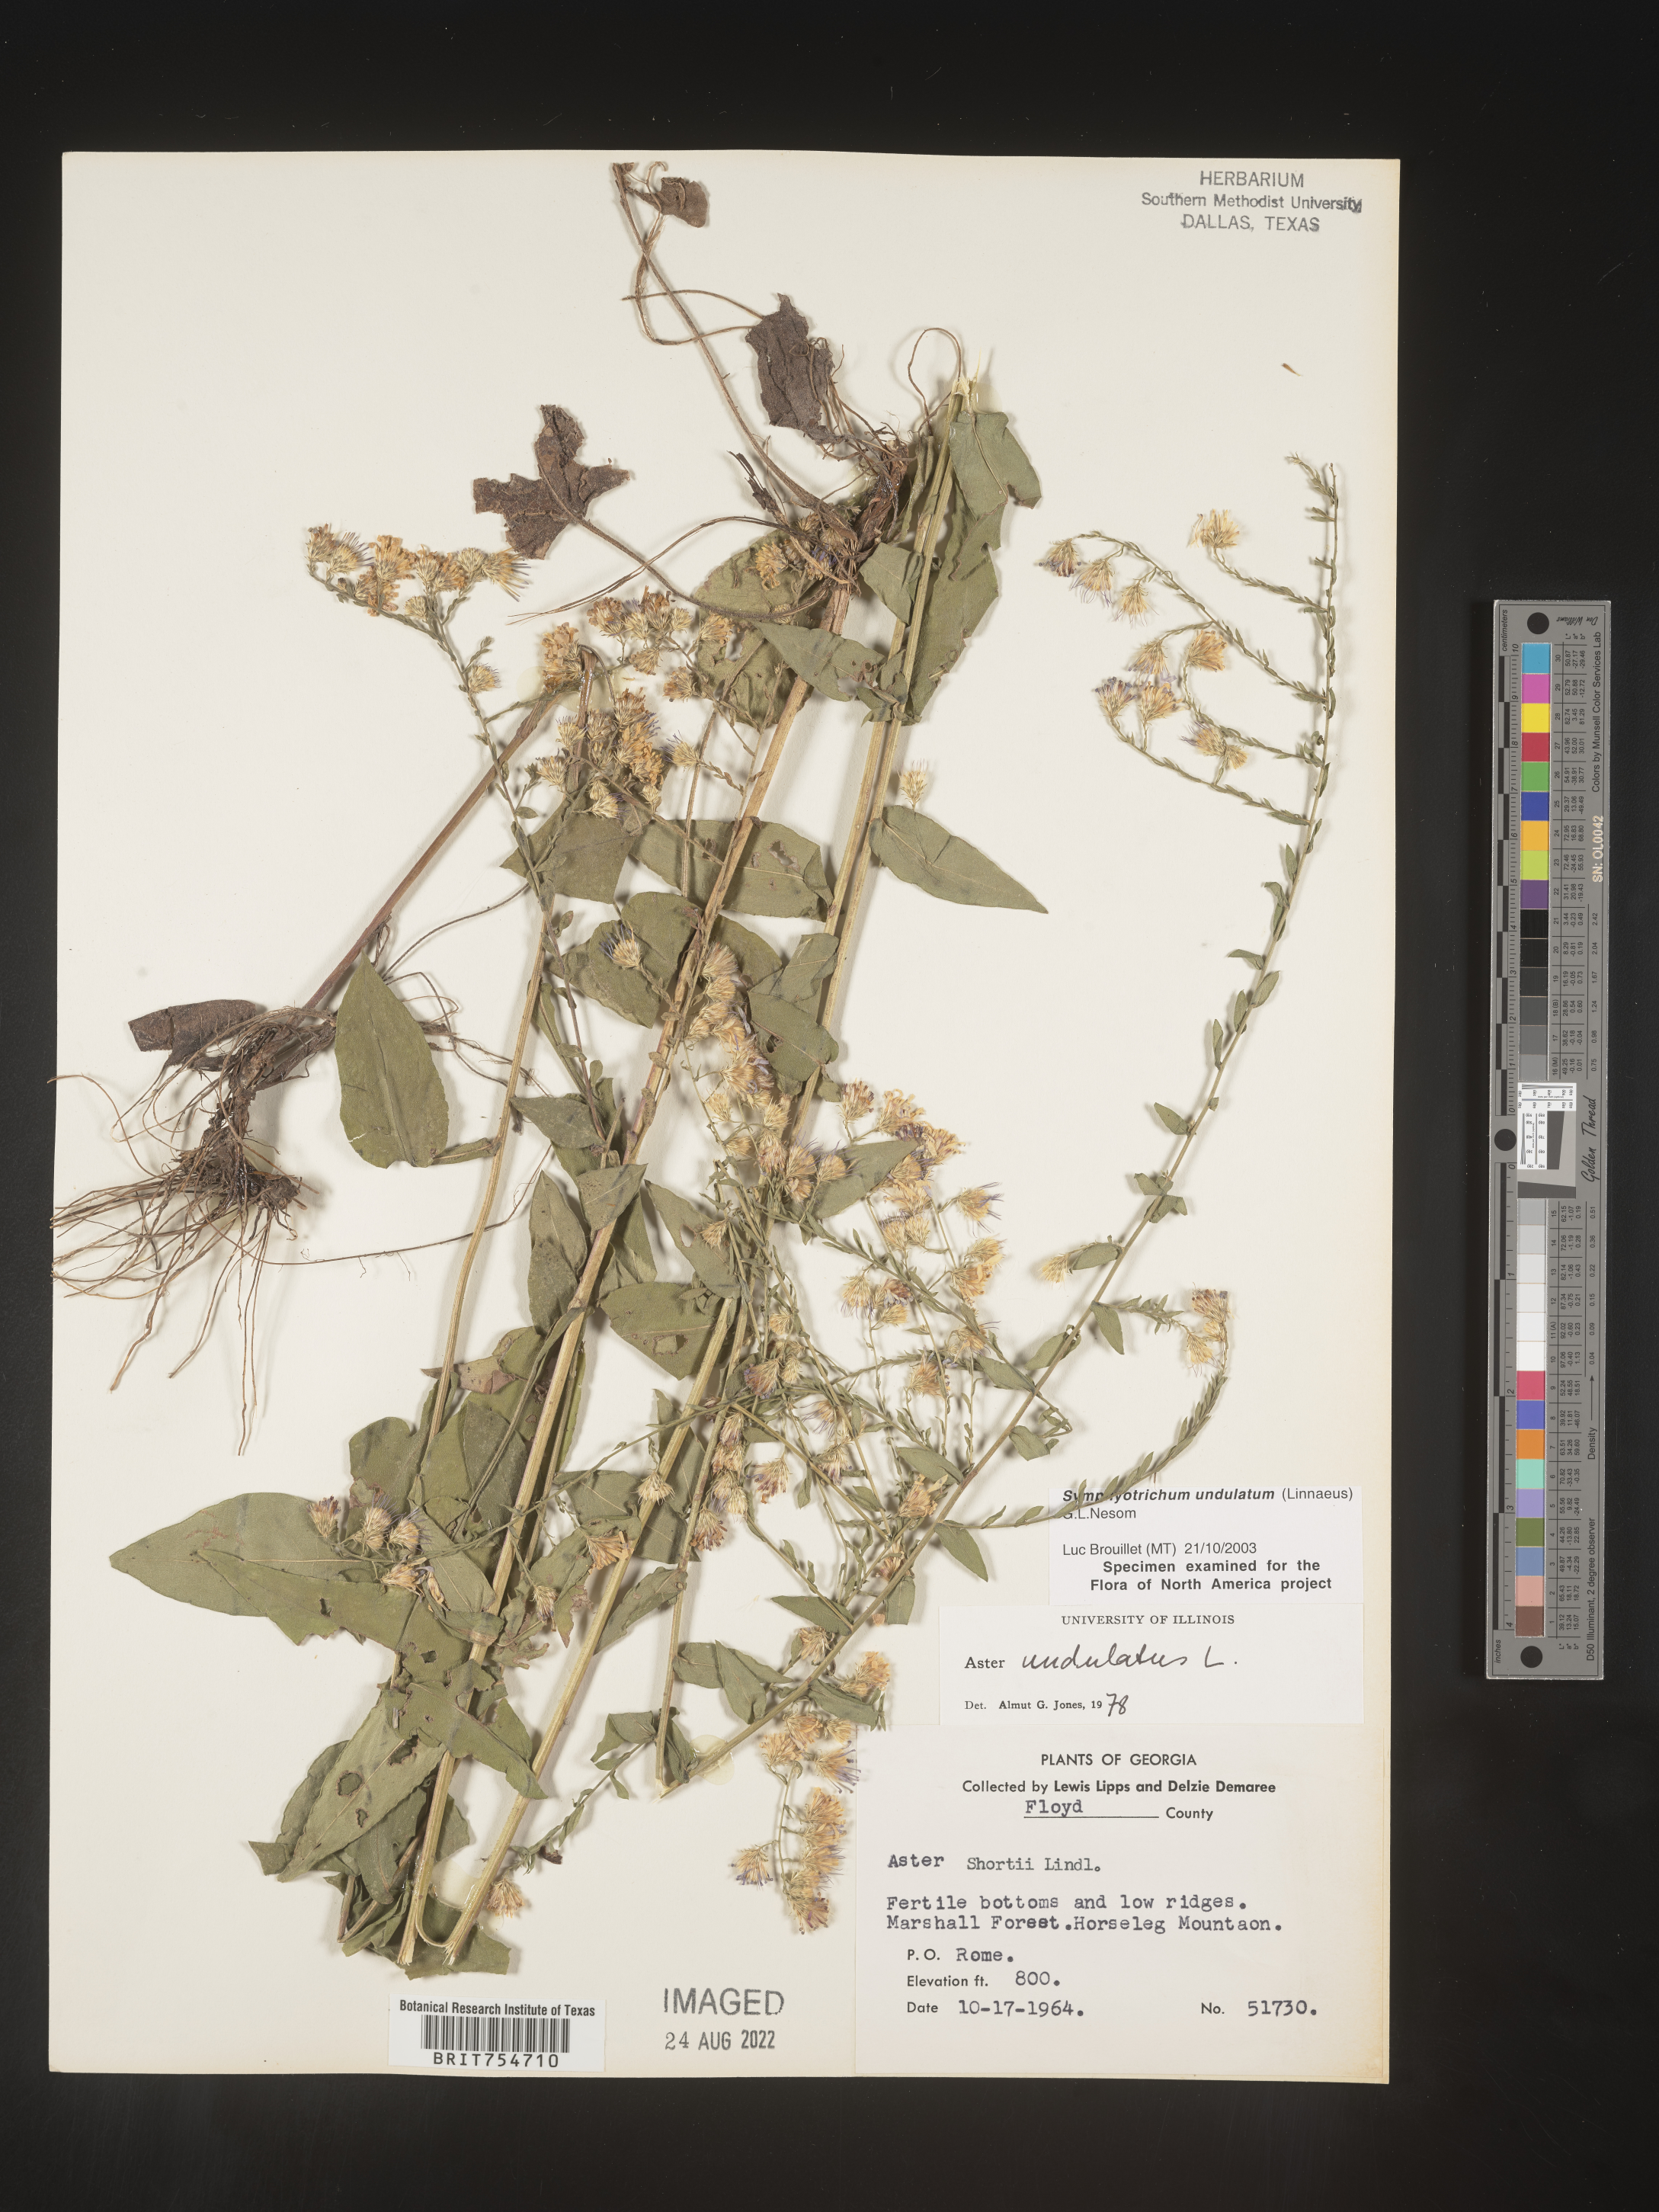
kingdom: Plantae
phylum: Tracheophyta
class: Magnoliopsida
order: Asterales
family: Asteraceae
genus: Symphyotrichum
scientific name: Symphyotrichum undulatum
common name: Clasping heart-leaf aster
